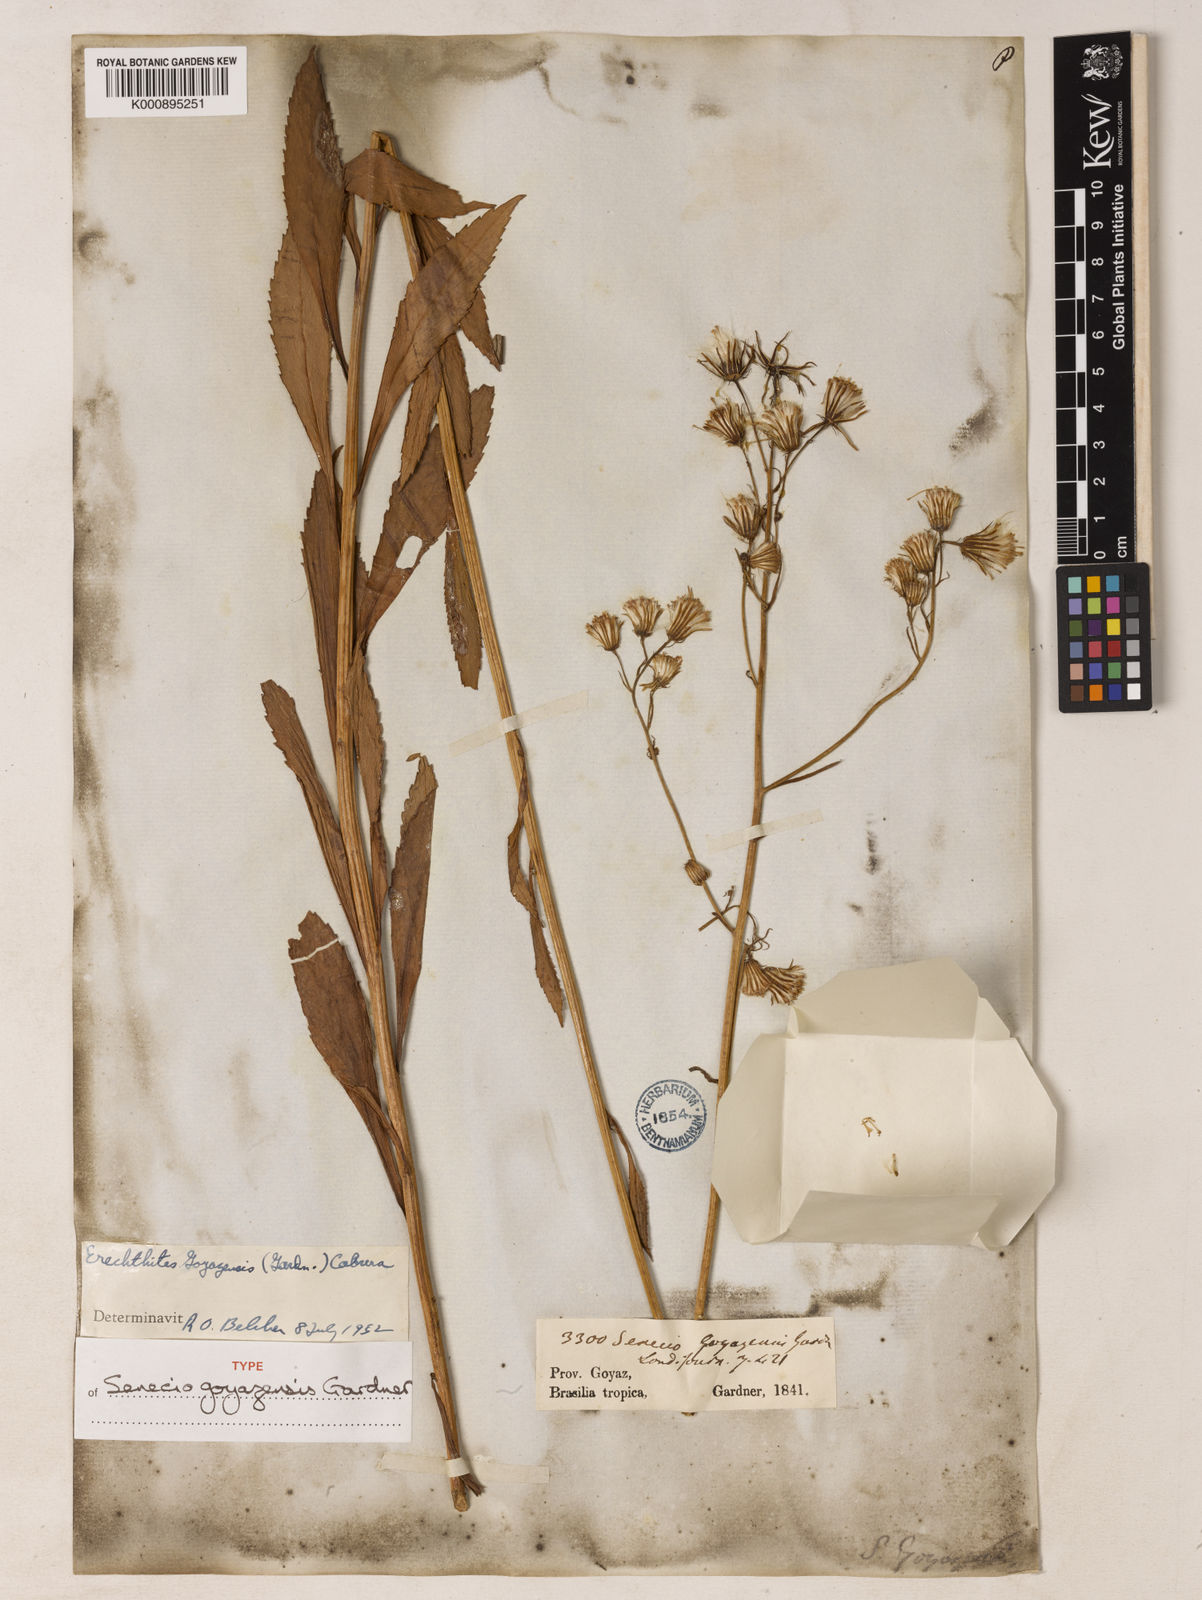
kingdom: Plantae
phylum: Tracheophyta
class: Magnoliopsida
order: Asterales
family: Asteraceae
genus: Erechtites
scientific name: Erechtites goyazensis
